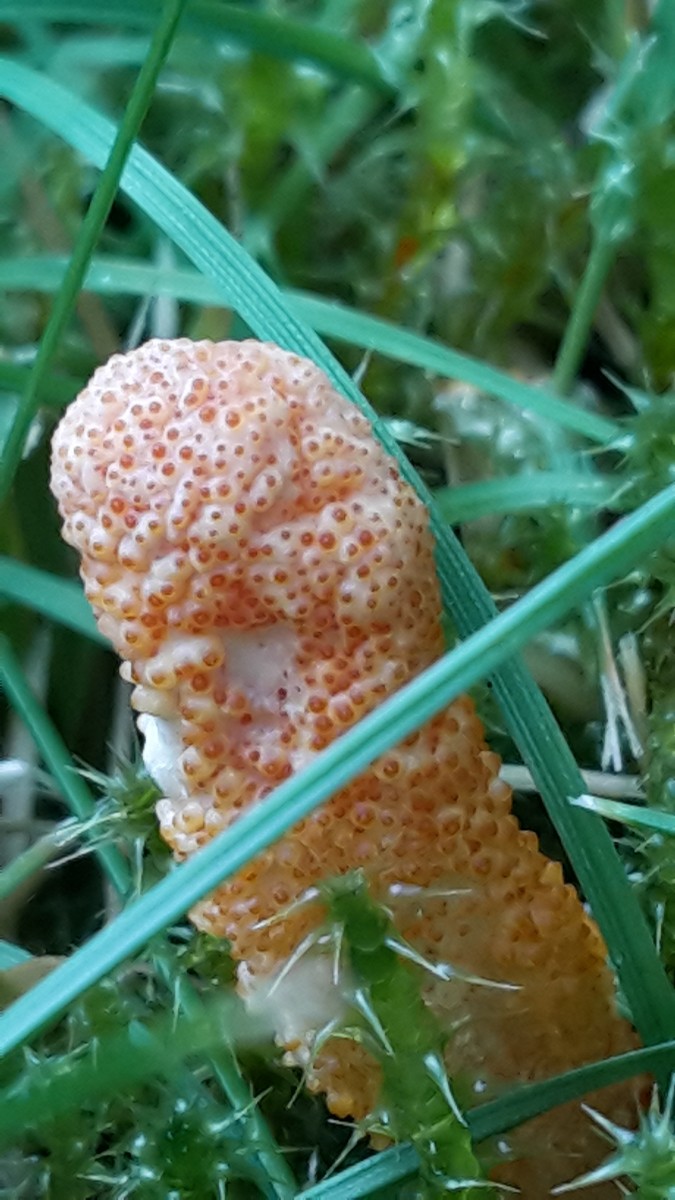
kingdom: Fungi
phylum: Ascomycota
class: Sordariomycetes
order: Hypocreales
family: Cordycipitaceae
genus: Cordyceps
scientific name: Cordyceps militaris
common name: puppe-snyltekølle
